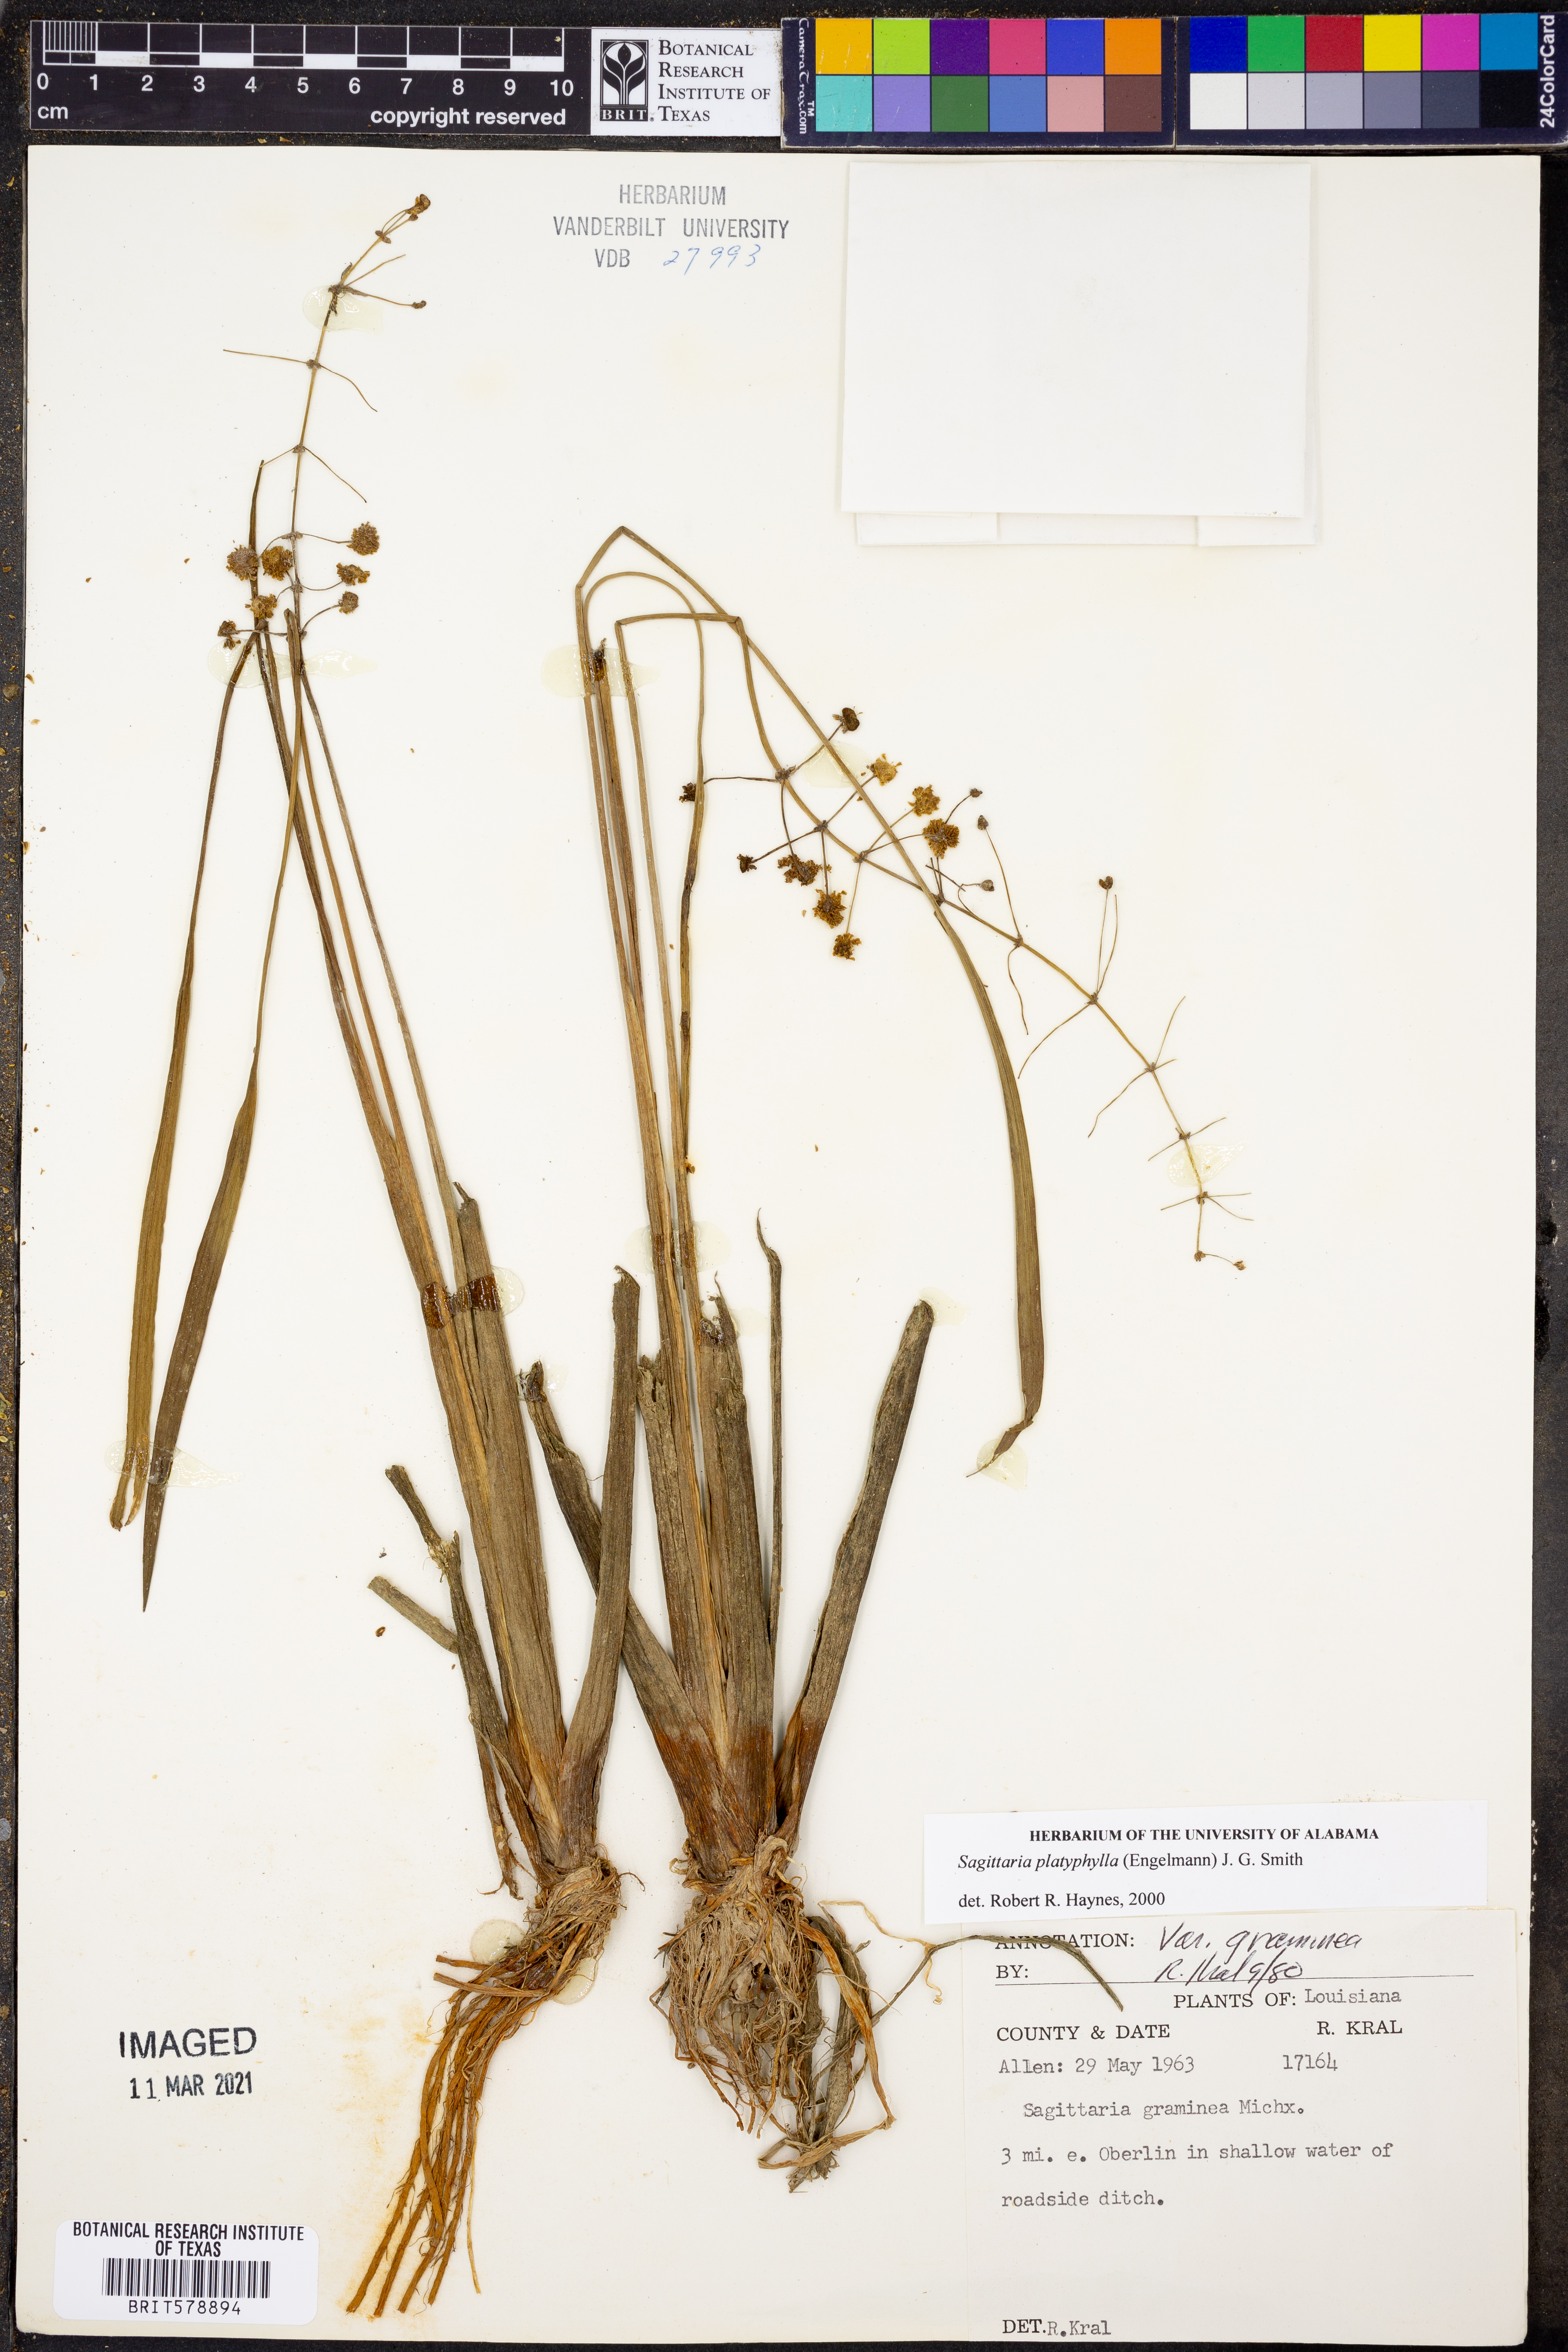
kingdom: Plantae
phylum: Tracheophyta
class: Liliopsida
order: Alismatales
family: Alismataceae
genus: Sagittaria
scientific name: Sagittaria platyphylla
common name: Broad-leaf arrowhead
